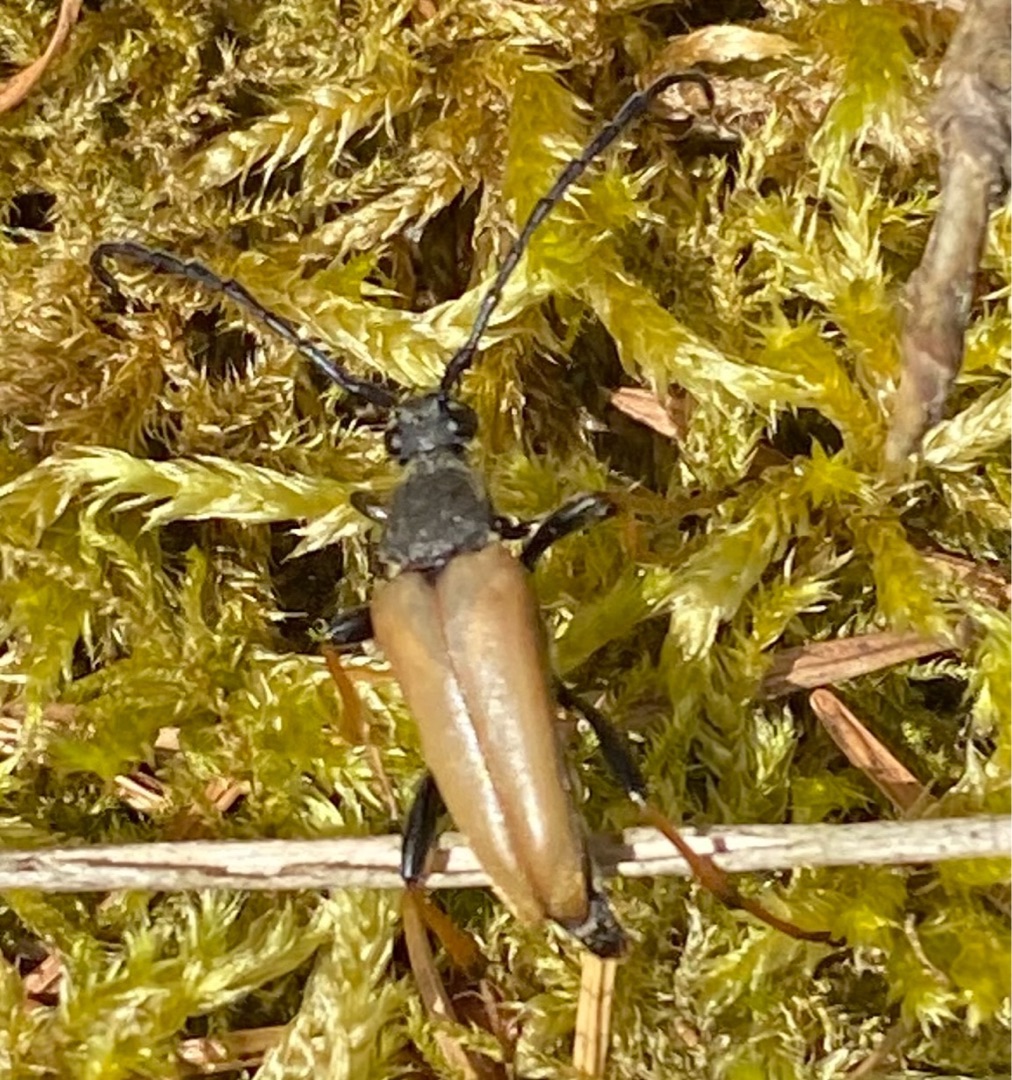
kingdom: Animalia
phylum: Arthropoda
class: Insecta
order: Coleoptera
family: Cerambycidae
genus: Stictoleptura
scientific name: Stictoleptura rubra
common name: Rød blomsterbuk
